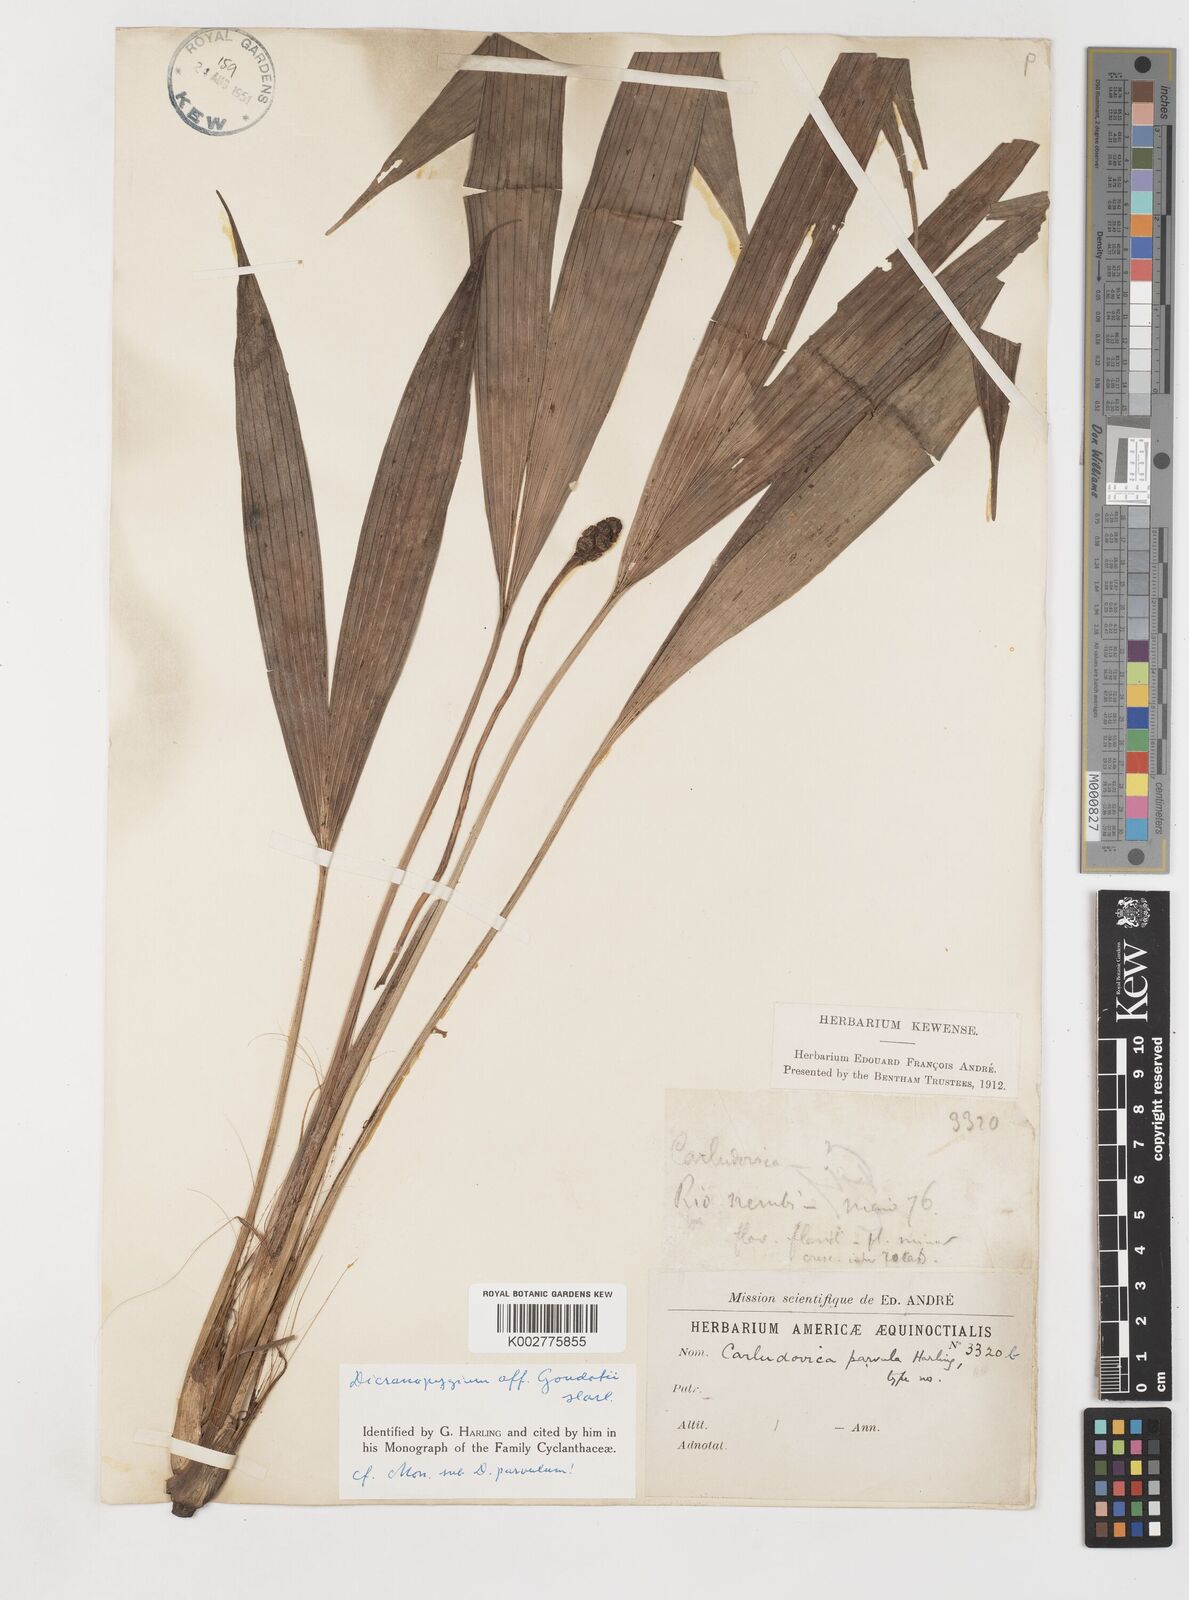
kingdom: Plantae
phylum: Tracheophyta
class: Liliopsida
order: Pandanales
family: Cyclanthaceae
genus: Dicranopygium
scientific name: Dicranopygium goudotii
